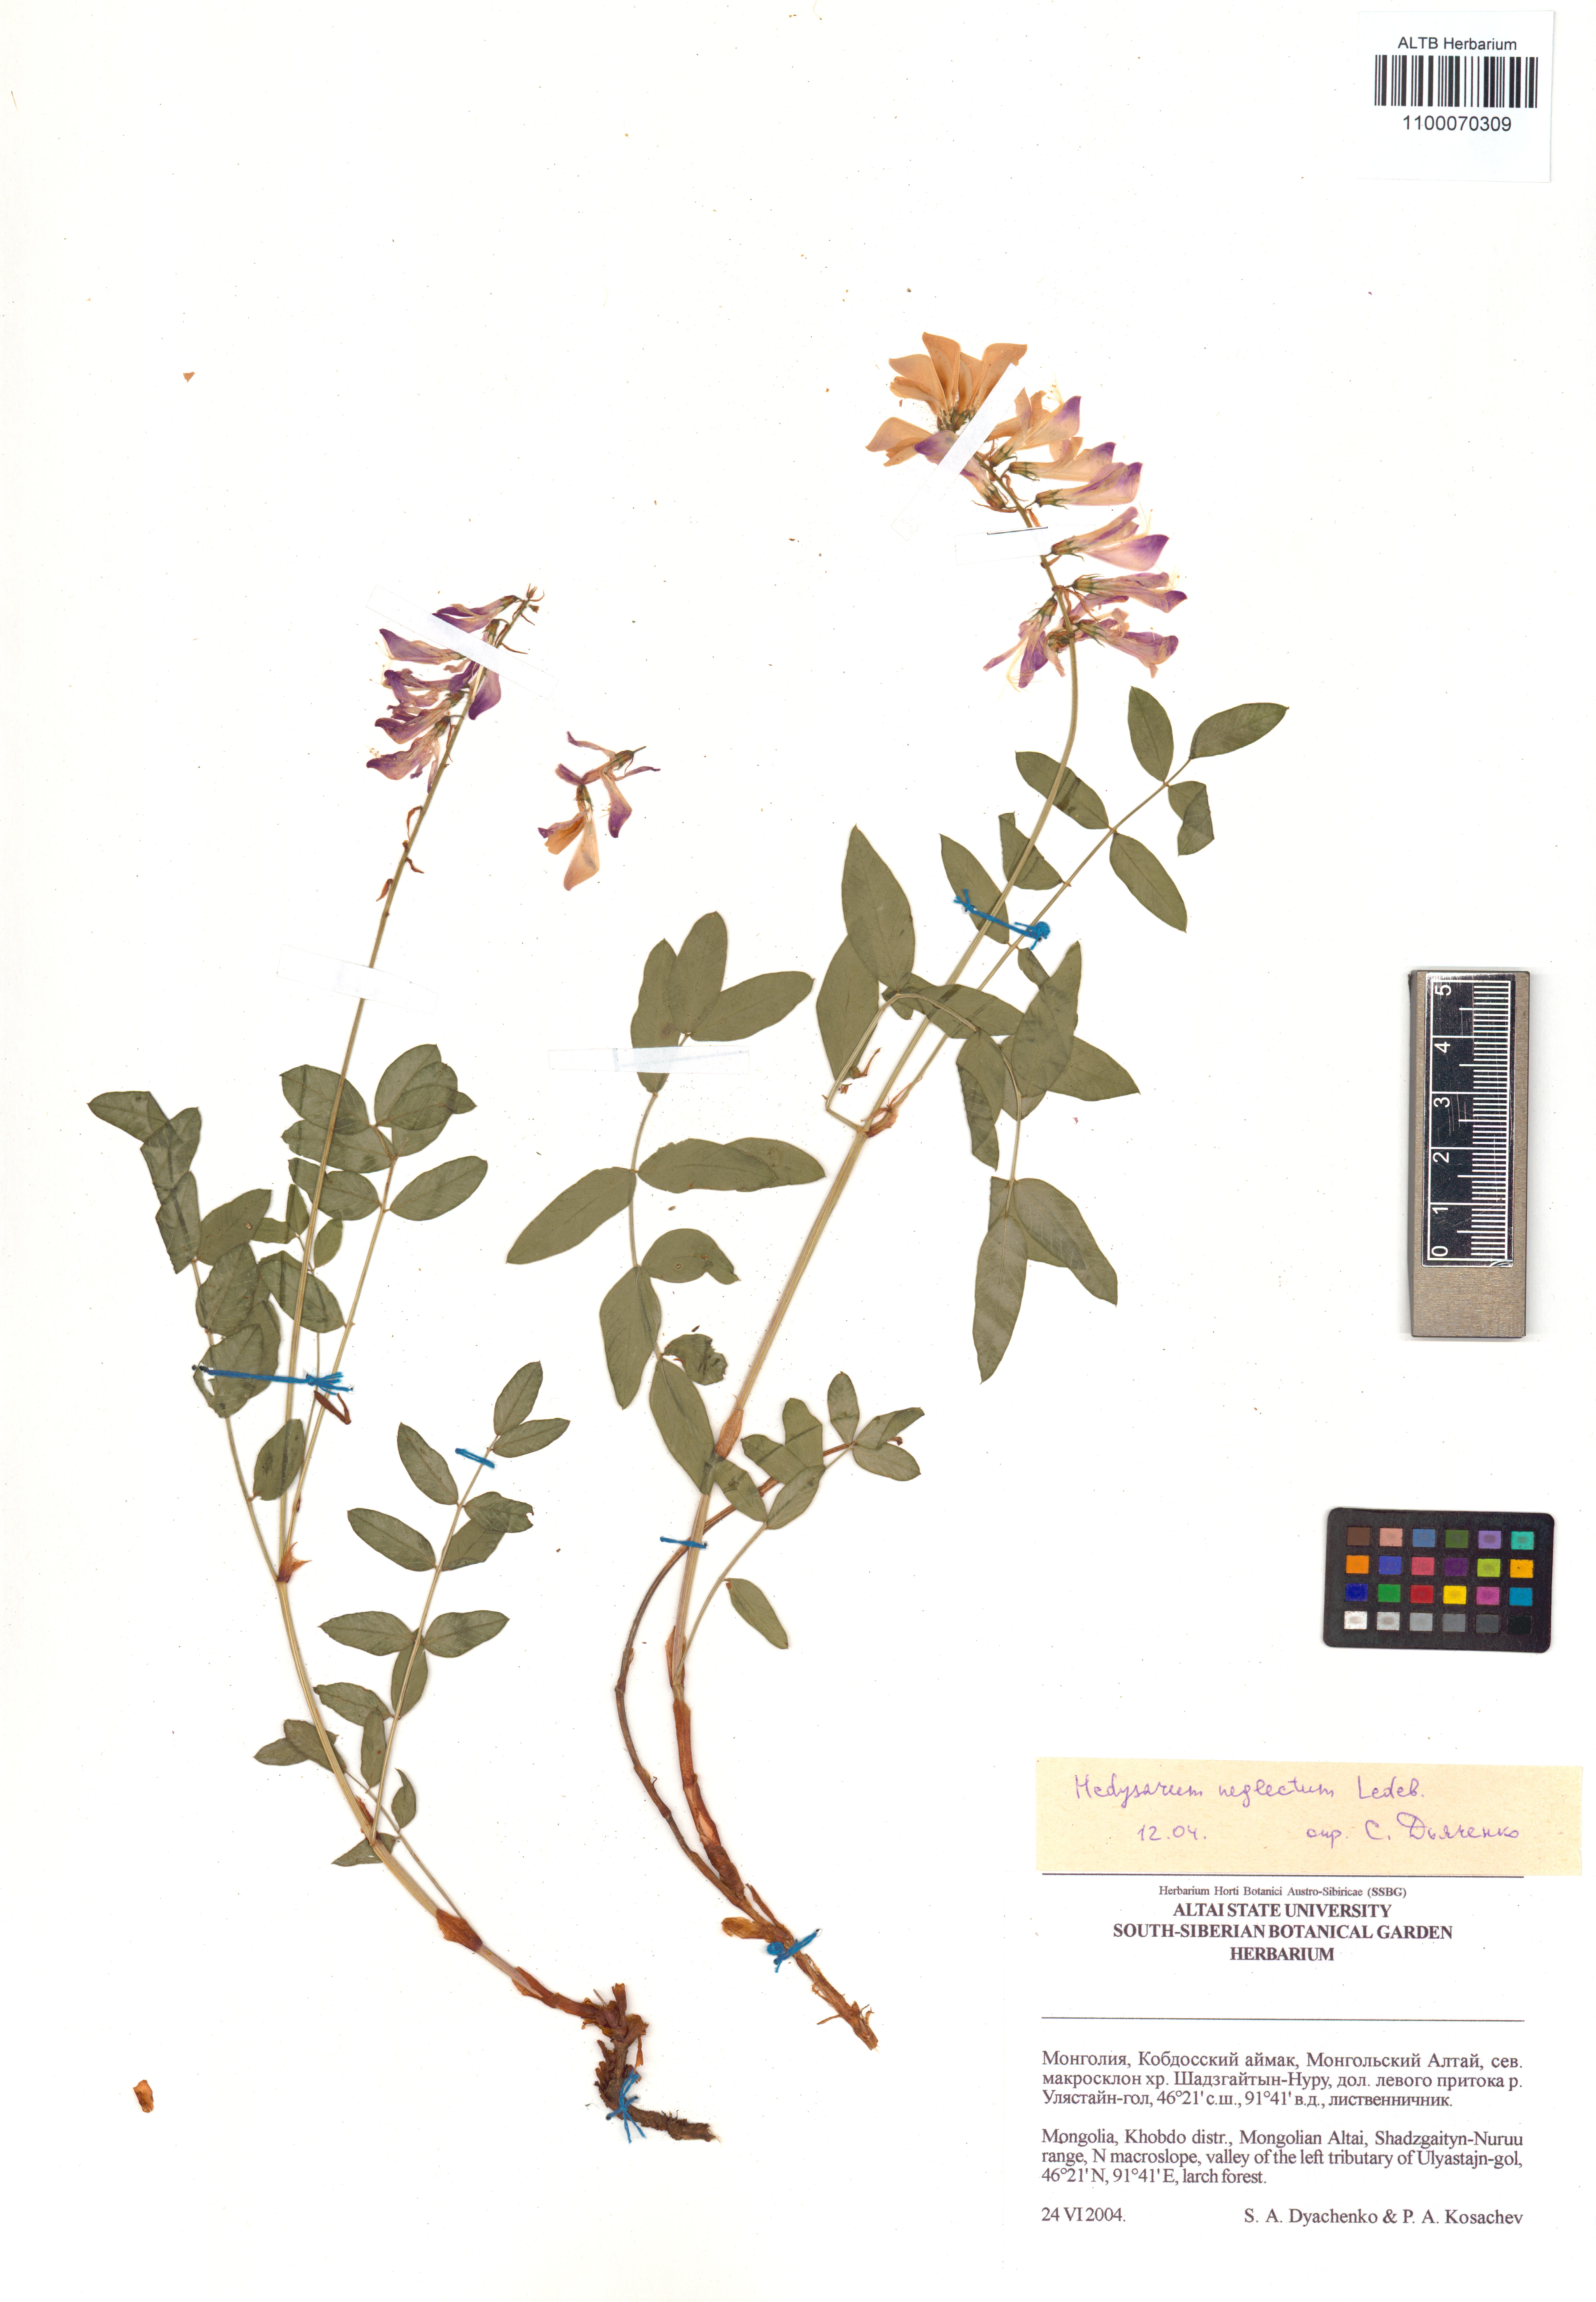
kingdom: Plantae
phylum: Tracheophyta
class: Magnoliopsida
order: Fabales
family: Fabaceae
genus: Hedysarum
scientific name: Hedysarum neglectum
